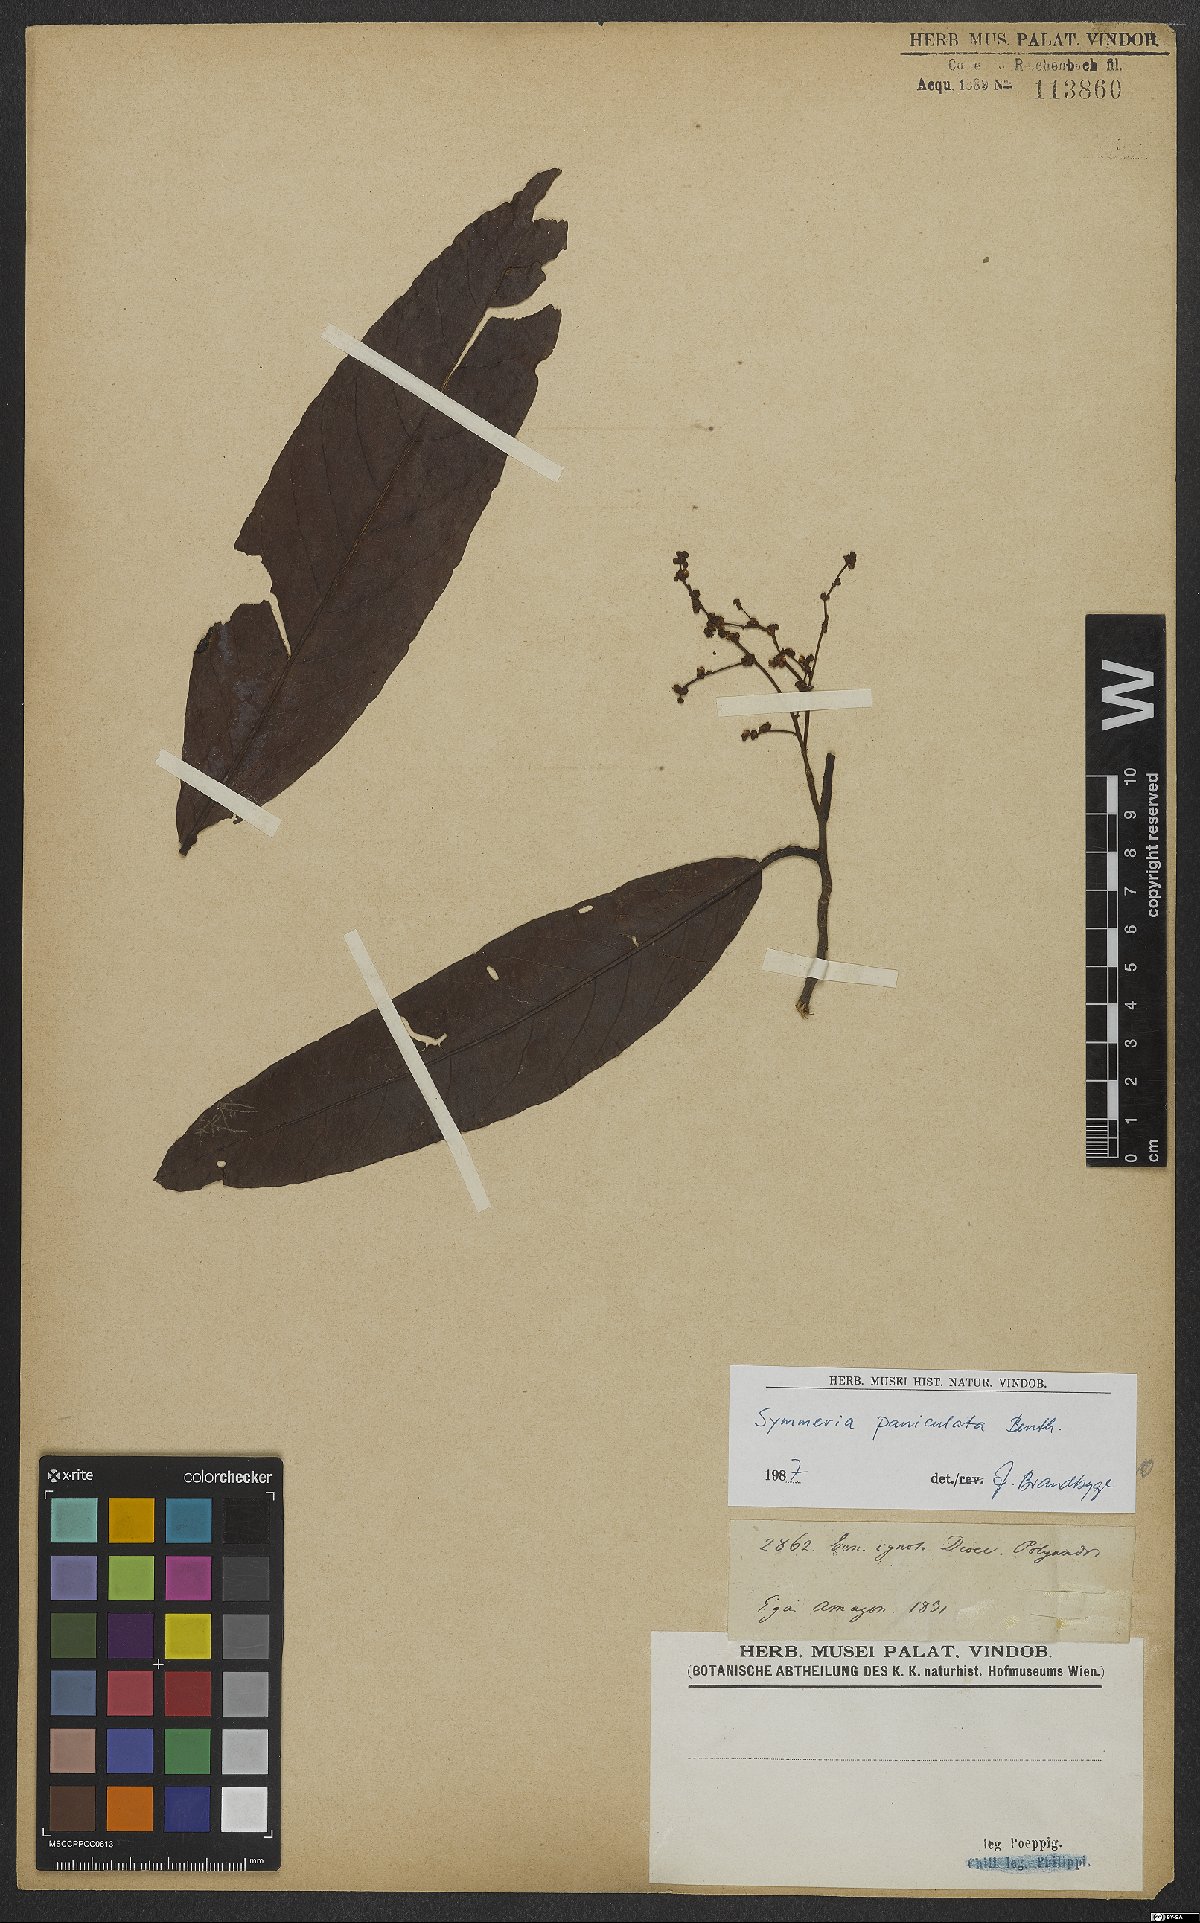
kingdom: Plantae
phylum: Tracheophyta
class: Magnoliopsida
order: Caryophyllales
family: Polygonaceae
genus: Symmeria
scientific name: Symmeria paniculata
